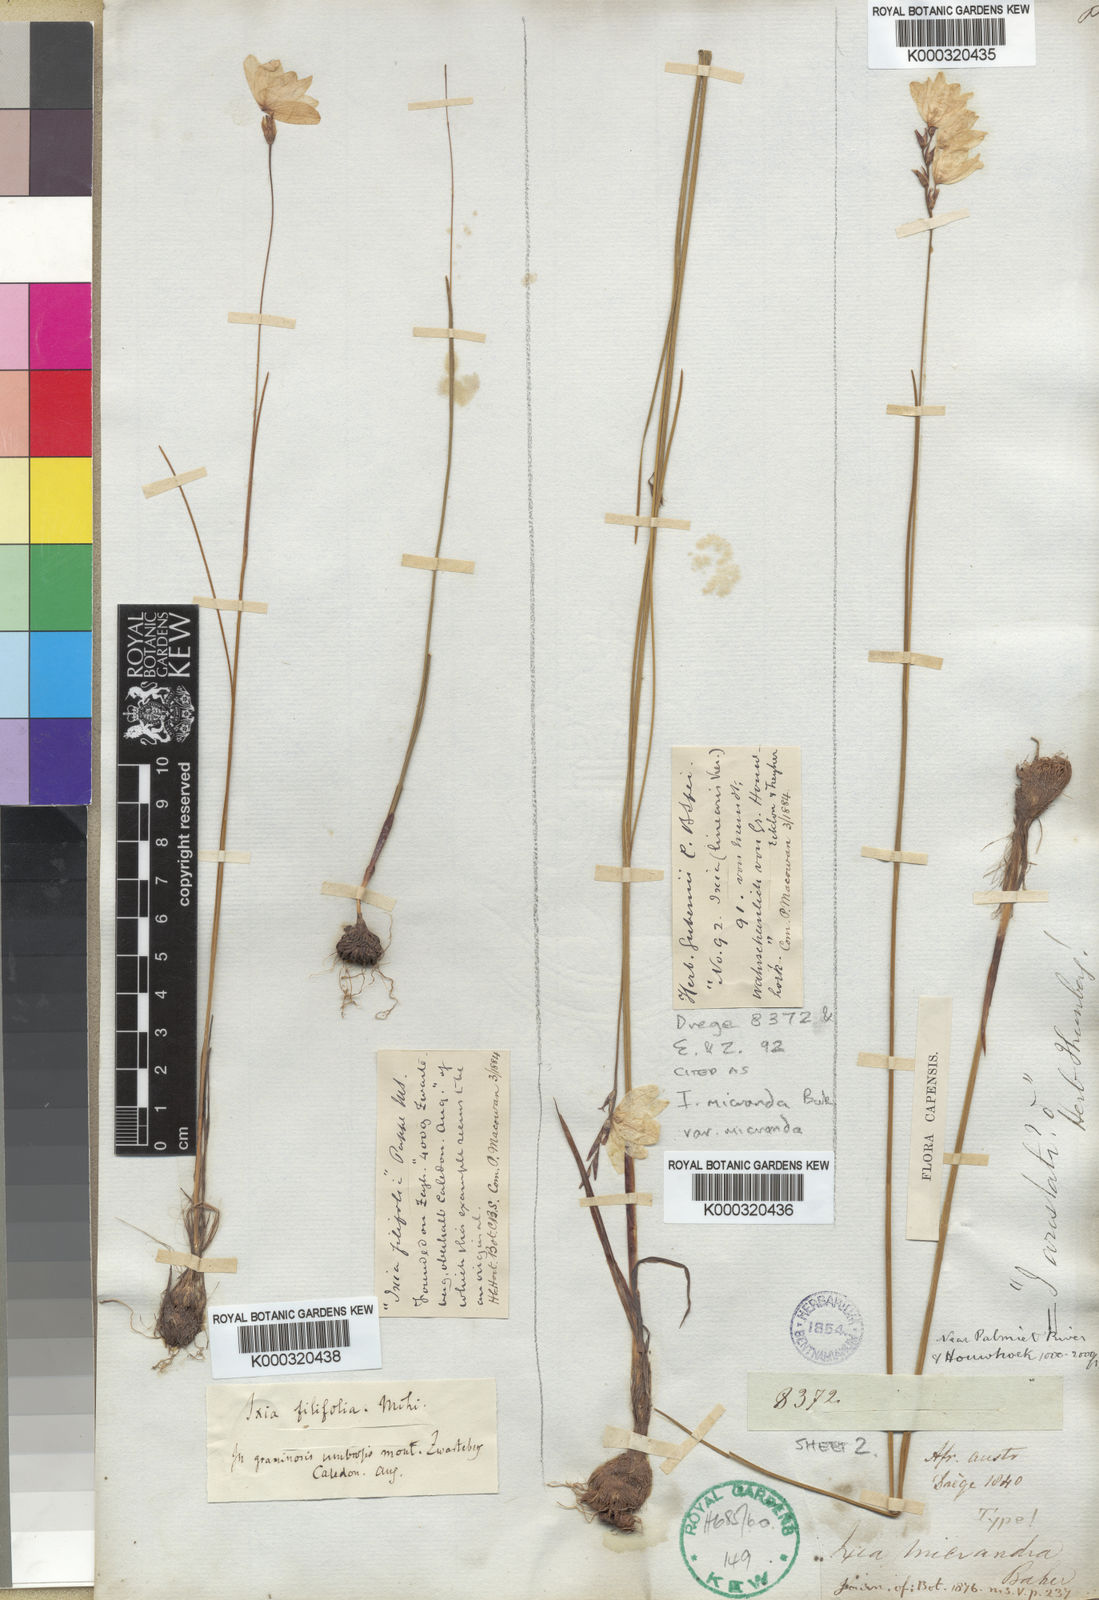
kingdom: Plantae
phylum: Tracheophyta
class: Liliopsida
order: Asparagales
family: Iridaceae
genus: Ixia
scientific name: Ixia micrandra
